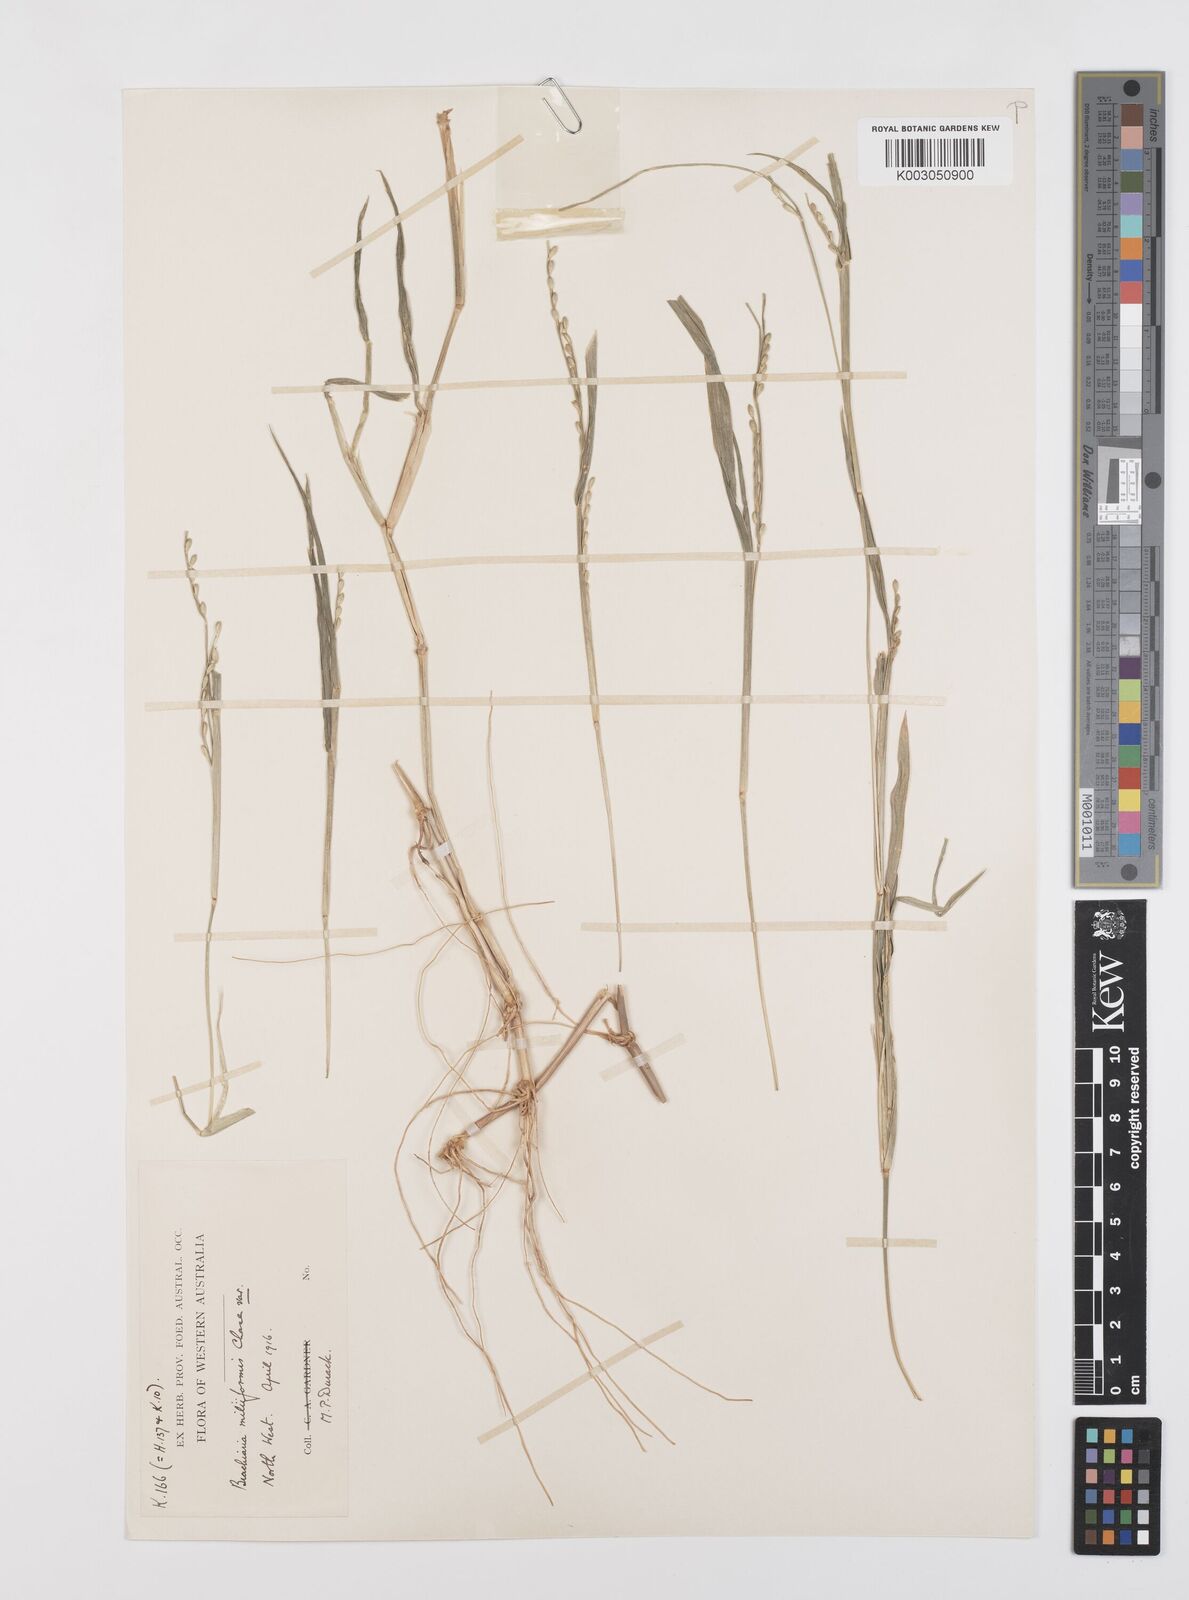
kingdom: Plantae
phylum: Tracheophyta
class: Liliopsida
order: Poales
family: Poaceae
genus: Urochloa
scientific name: Urochloa subquadripara
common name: Armgrass millet
